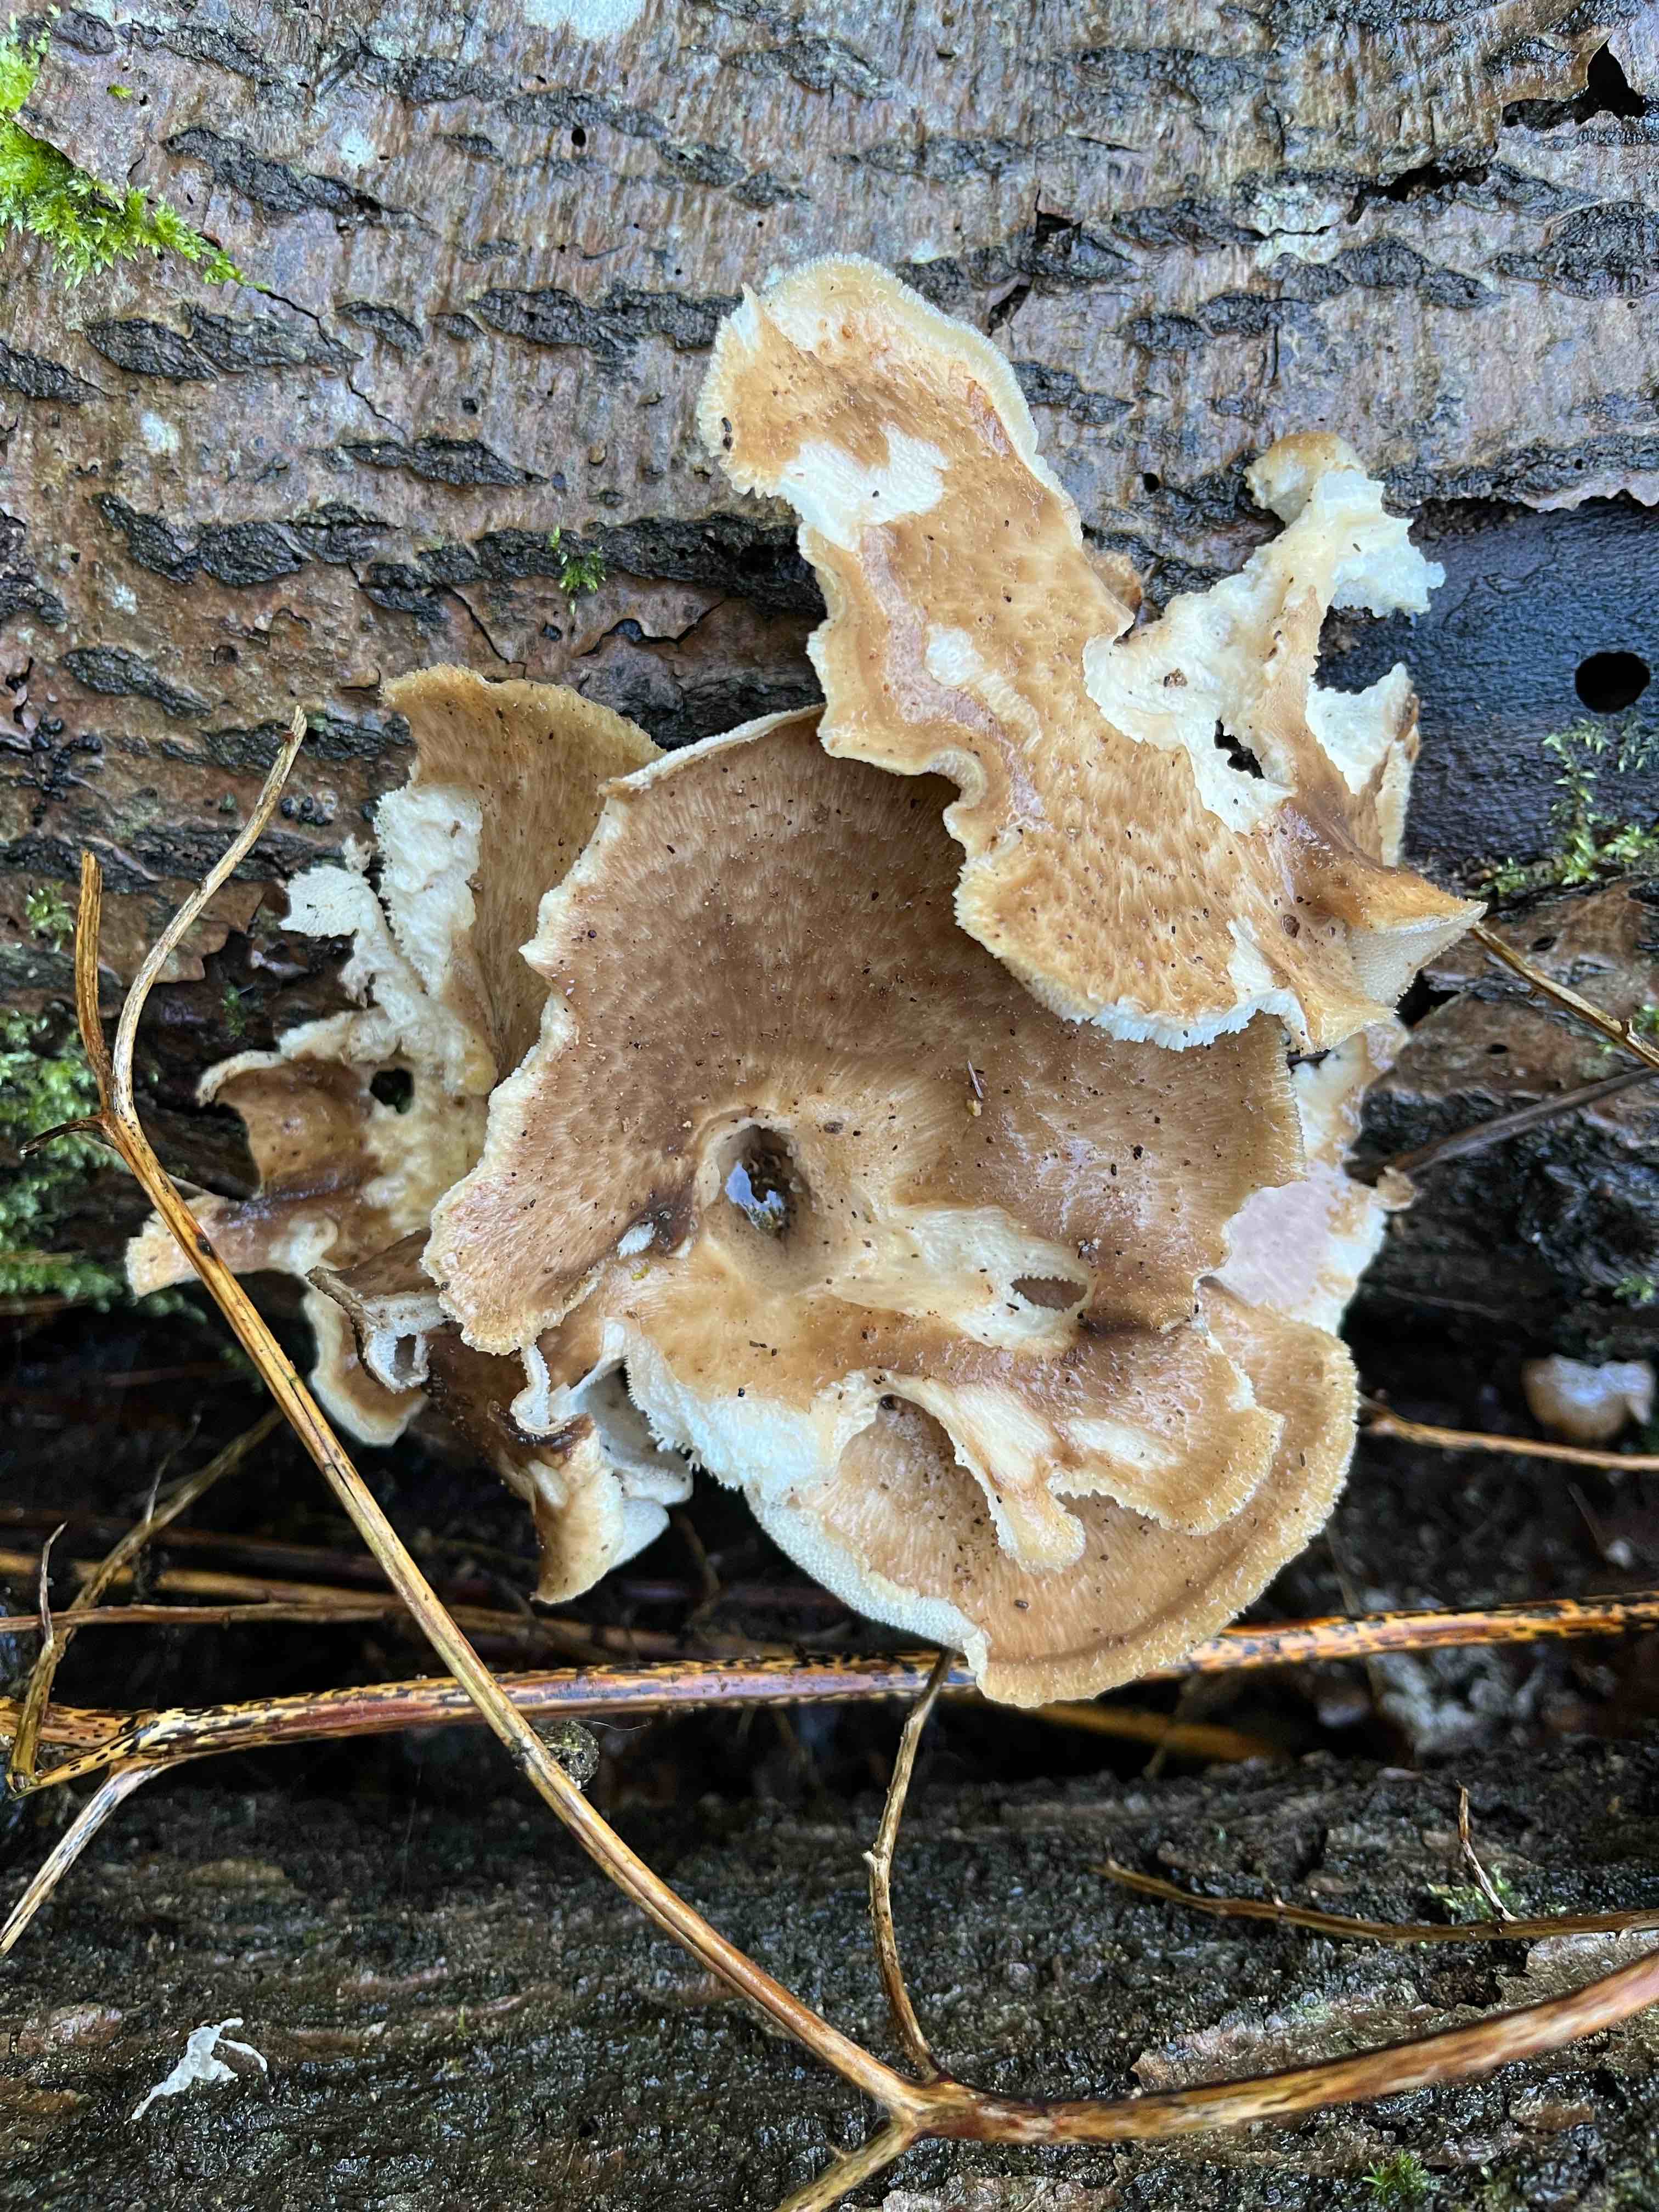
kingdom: Fungi
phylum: Basidiomycota
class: Agaricomycetes
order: Polyporales
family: Polyporaceae
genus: Cerioporus
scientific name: Cerioporus squamosus
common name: skællet stilkporesvamp
